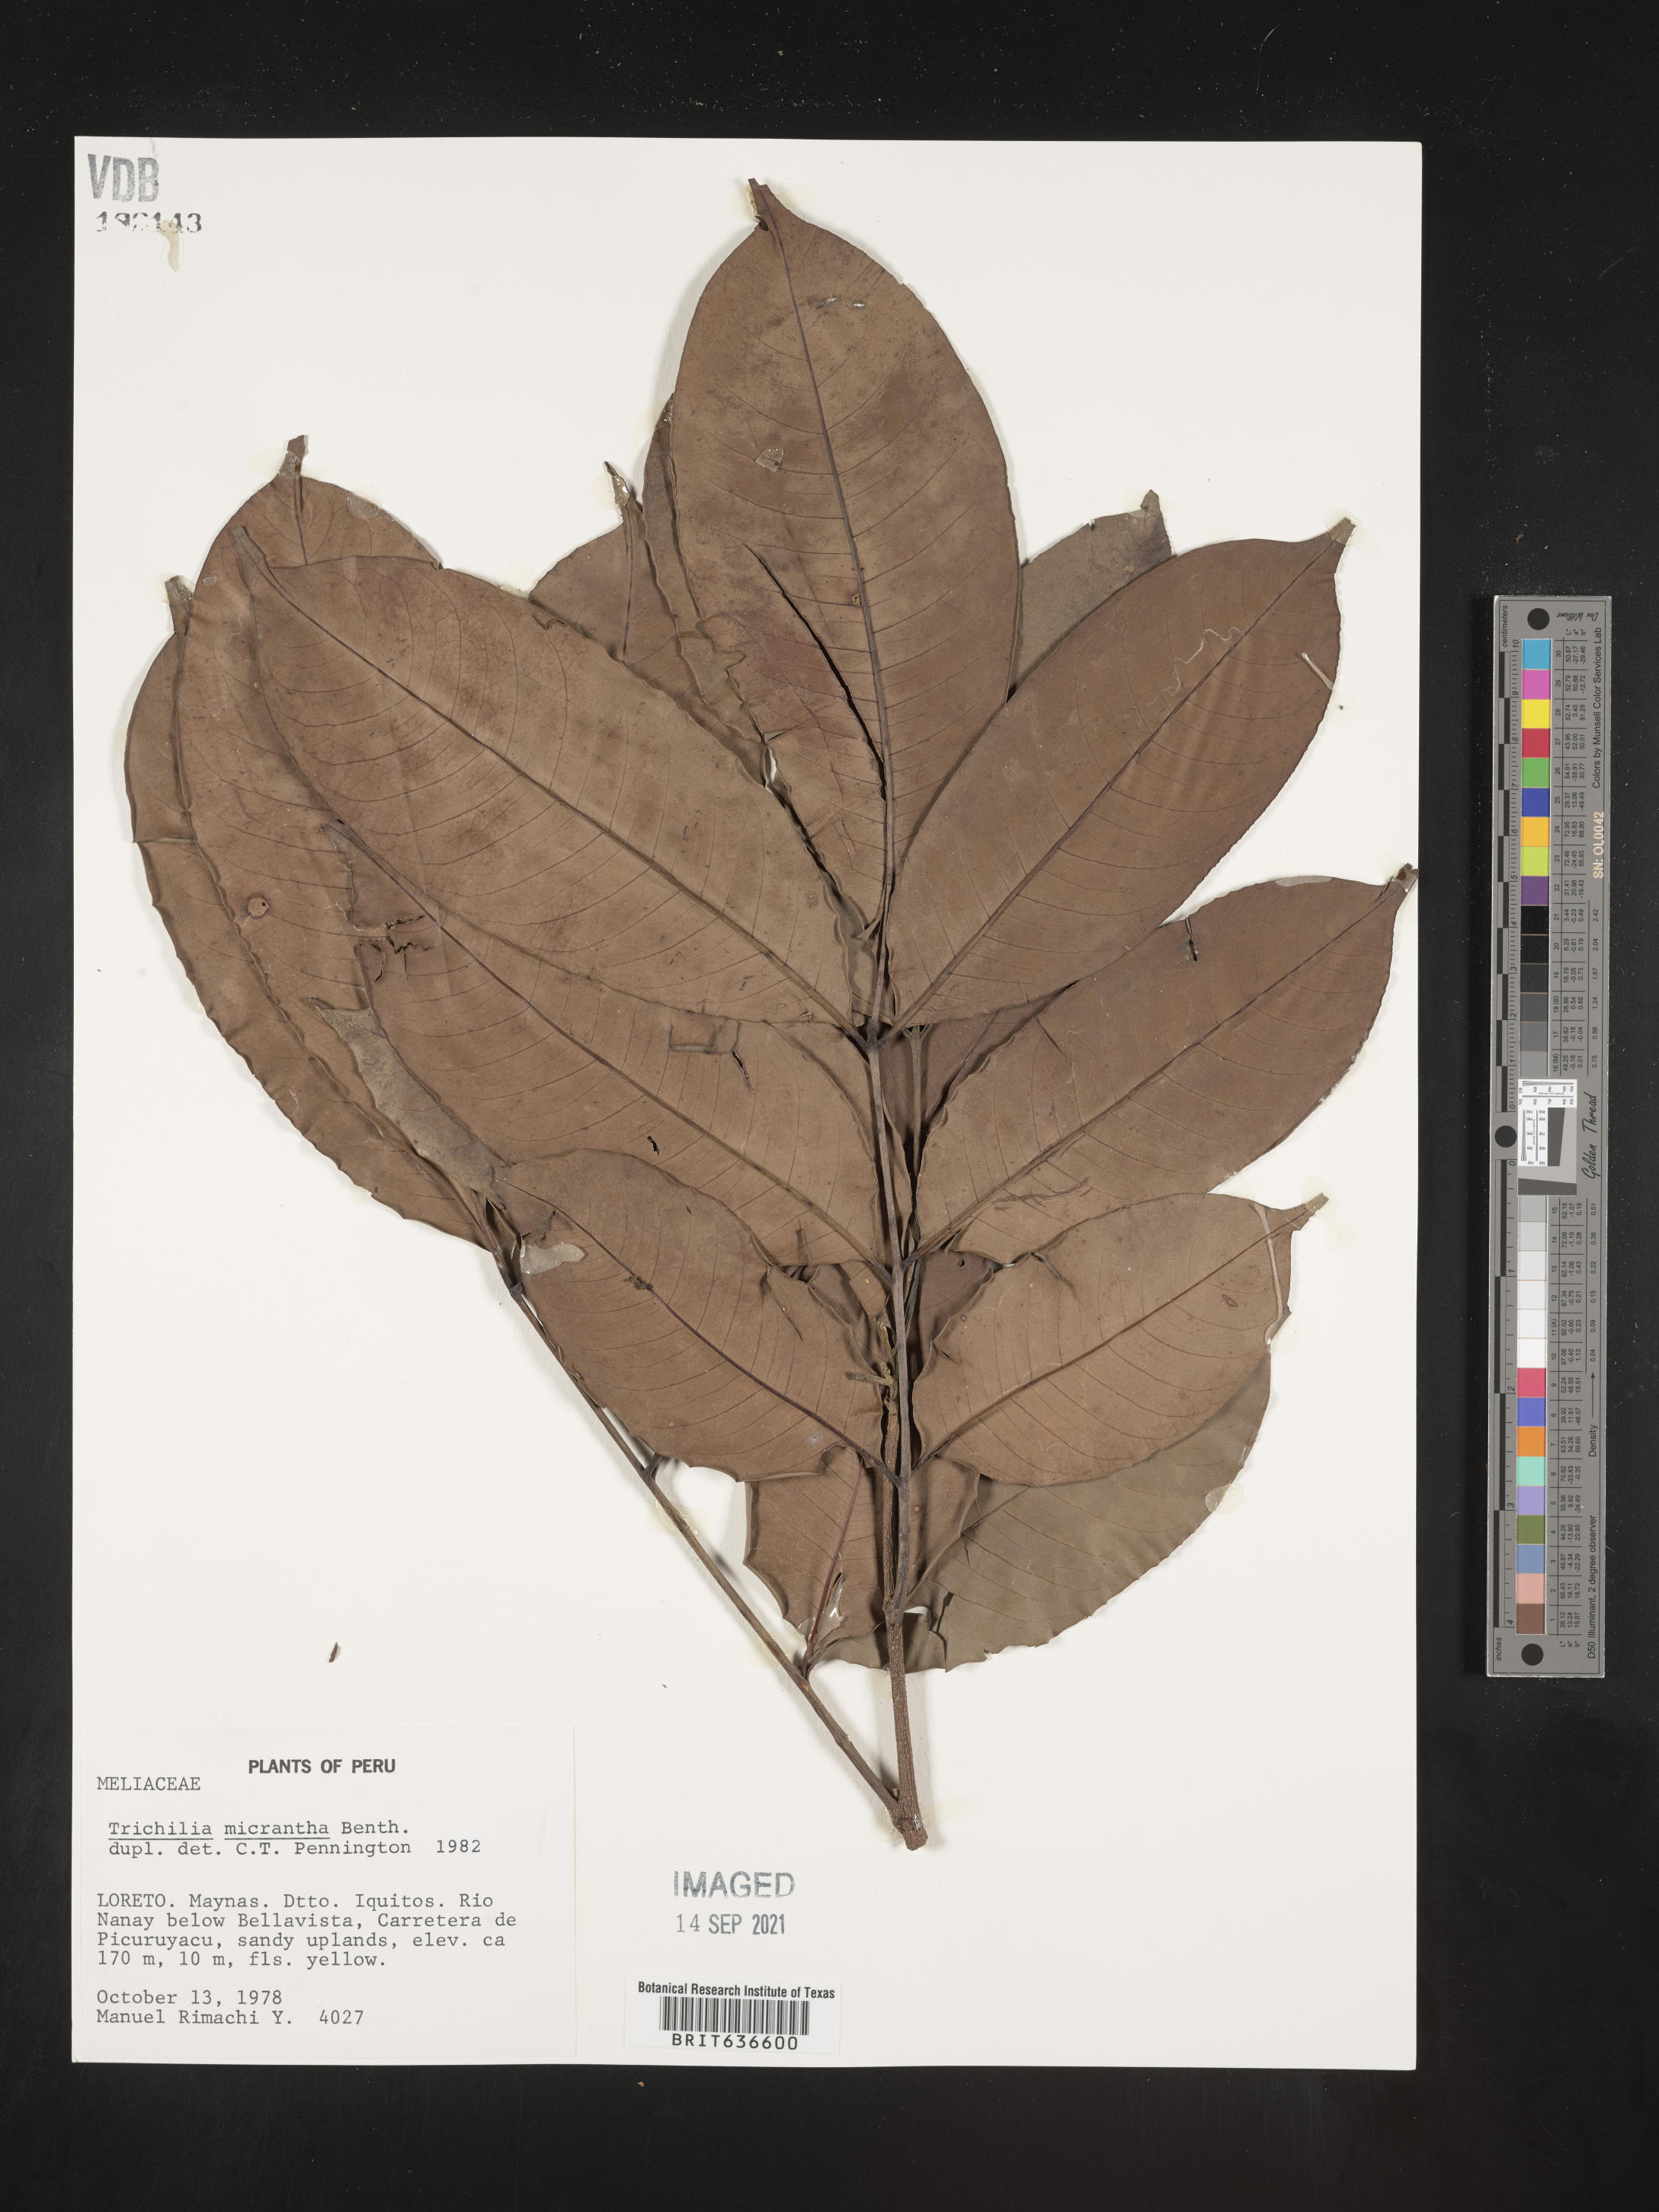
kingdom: Plantae
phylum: Tracheophyta
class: Magnoliopsida
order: Sapindales
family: Meliaceae
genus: Trichilia
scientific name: Trichilia
